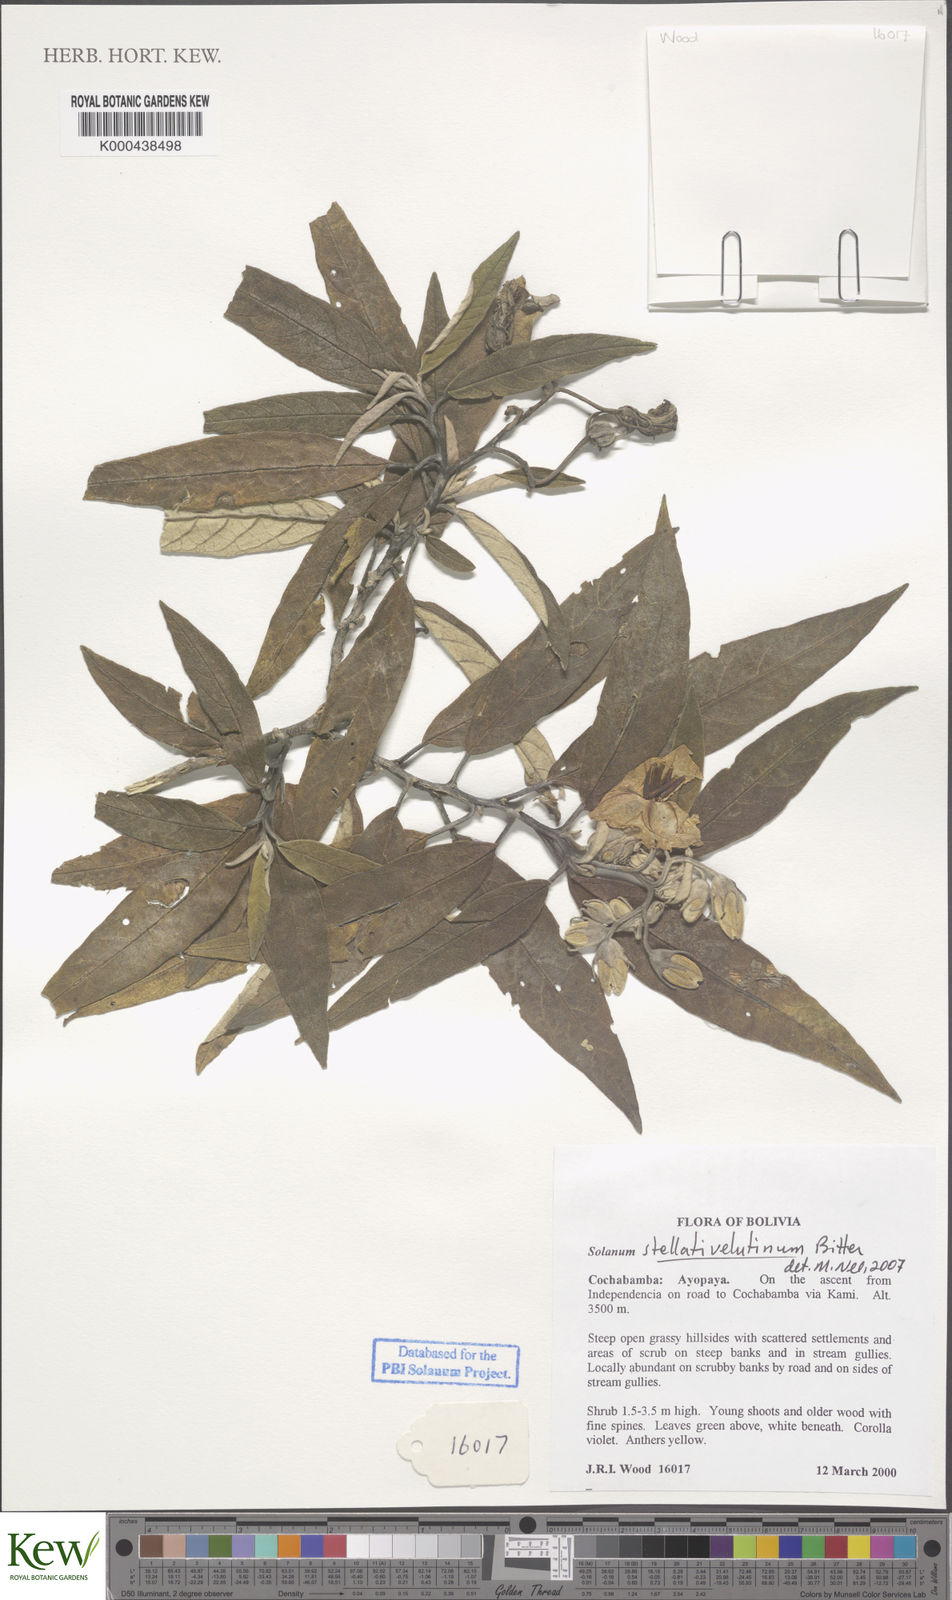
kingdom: Plantae
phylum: Tracheophyta
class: Magnoliopsida
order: Solanales
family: Solanaceae
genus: Solanum
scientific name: Solanum stellativelutinum
